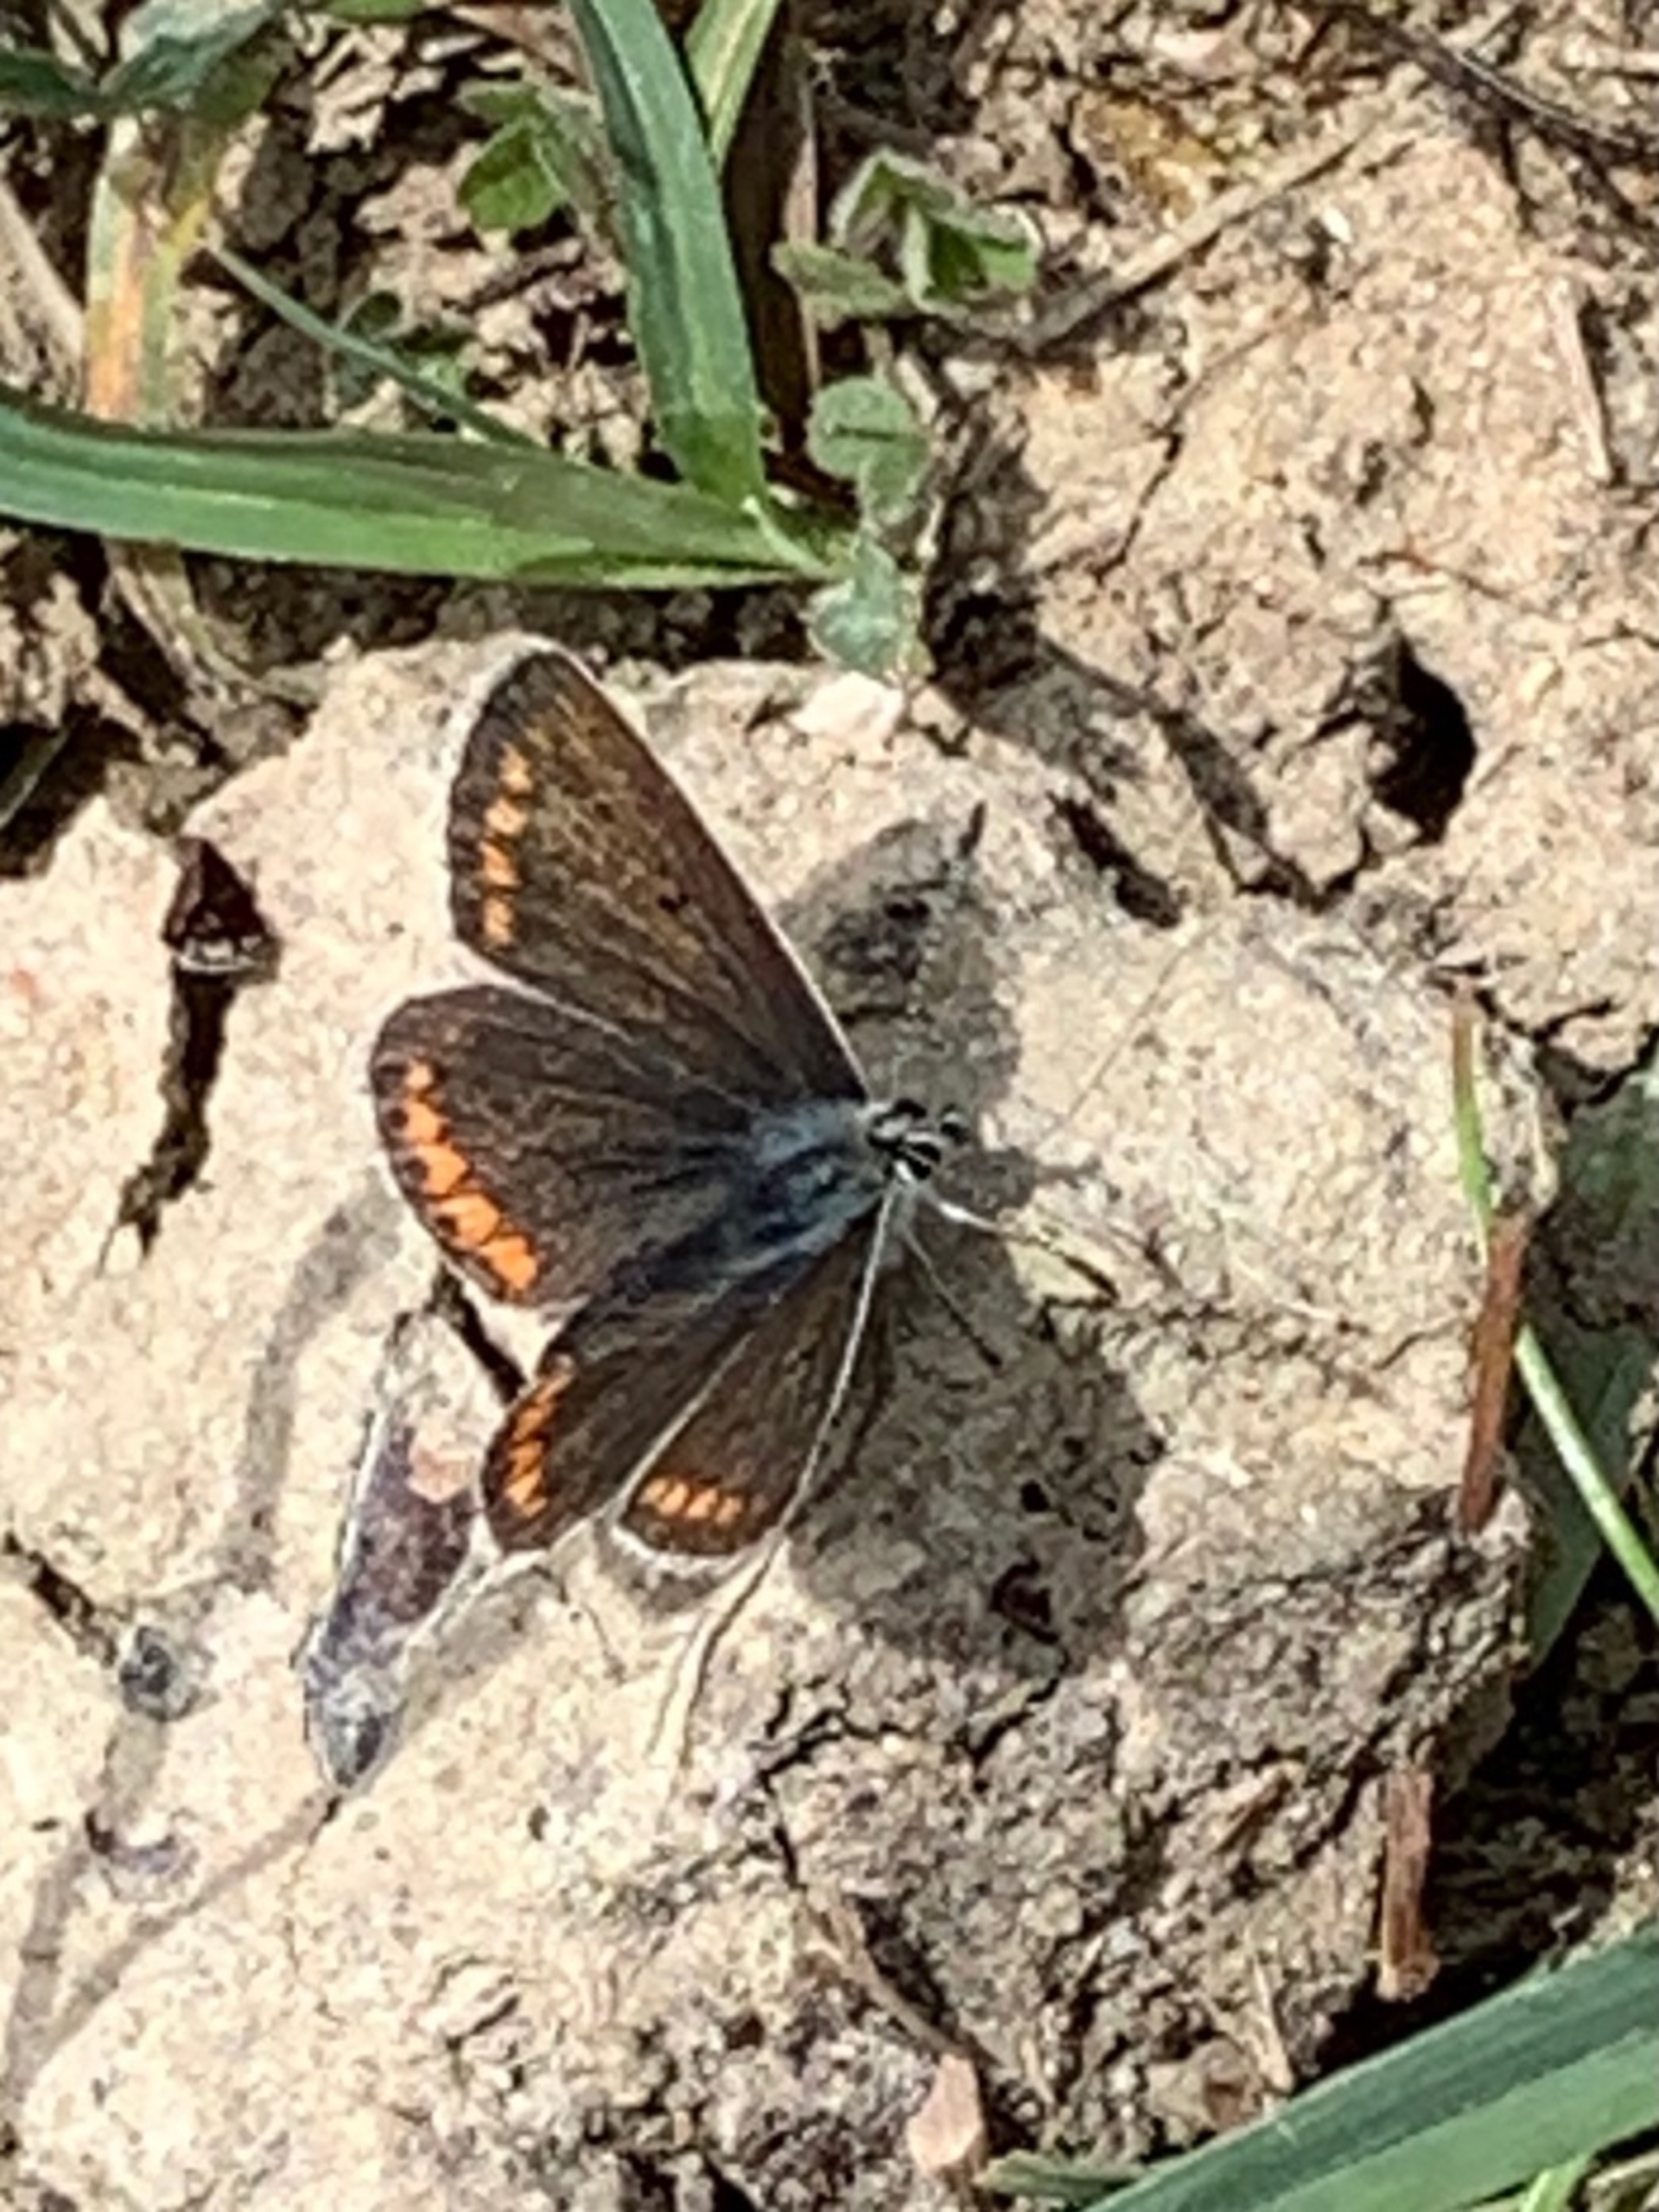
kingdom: Animalia
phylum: Arthropoda
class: Insecta
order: Lepidoptera
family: Lycaenidae
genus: Aricia
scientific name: Aricia agestis
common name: Rødplettet blåfugl
